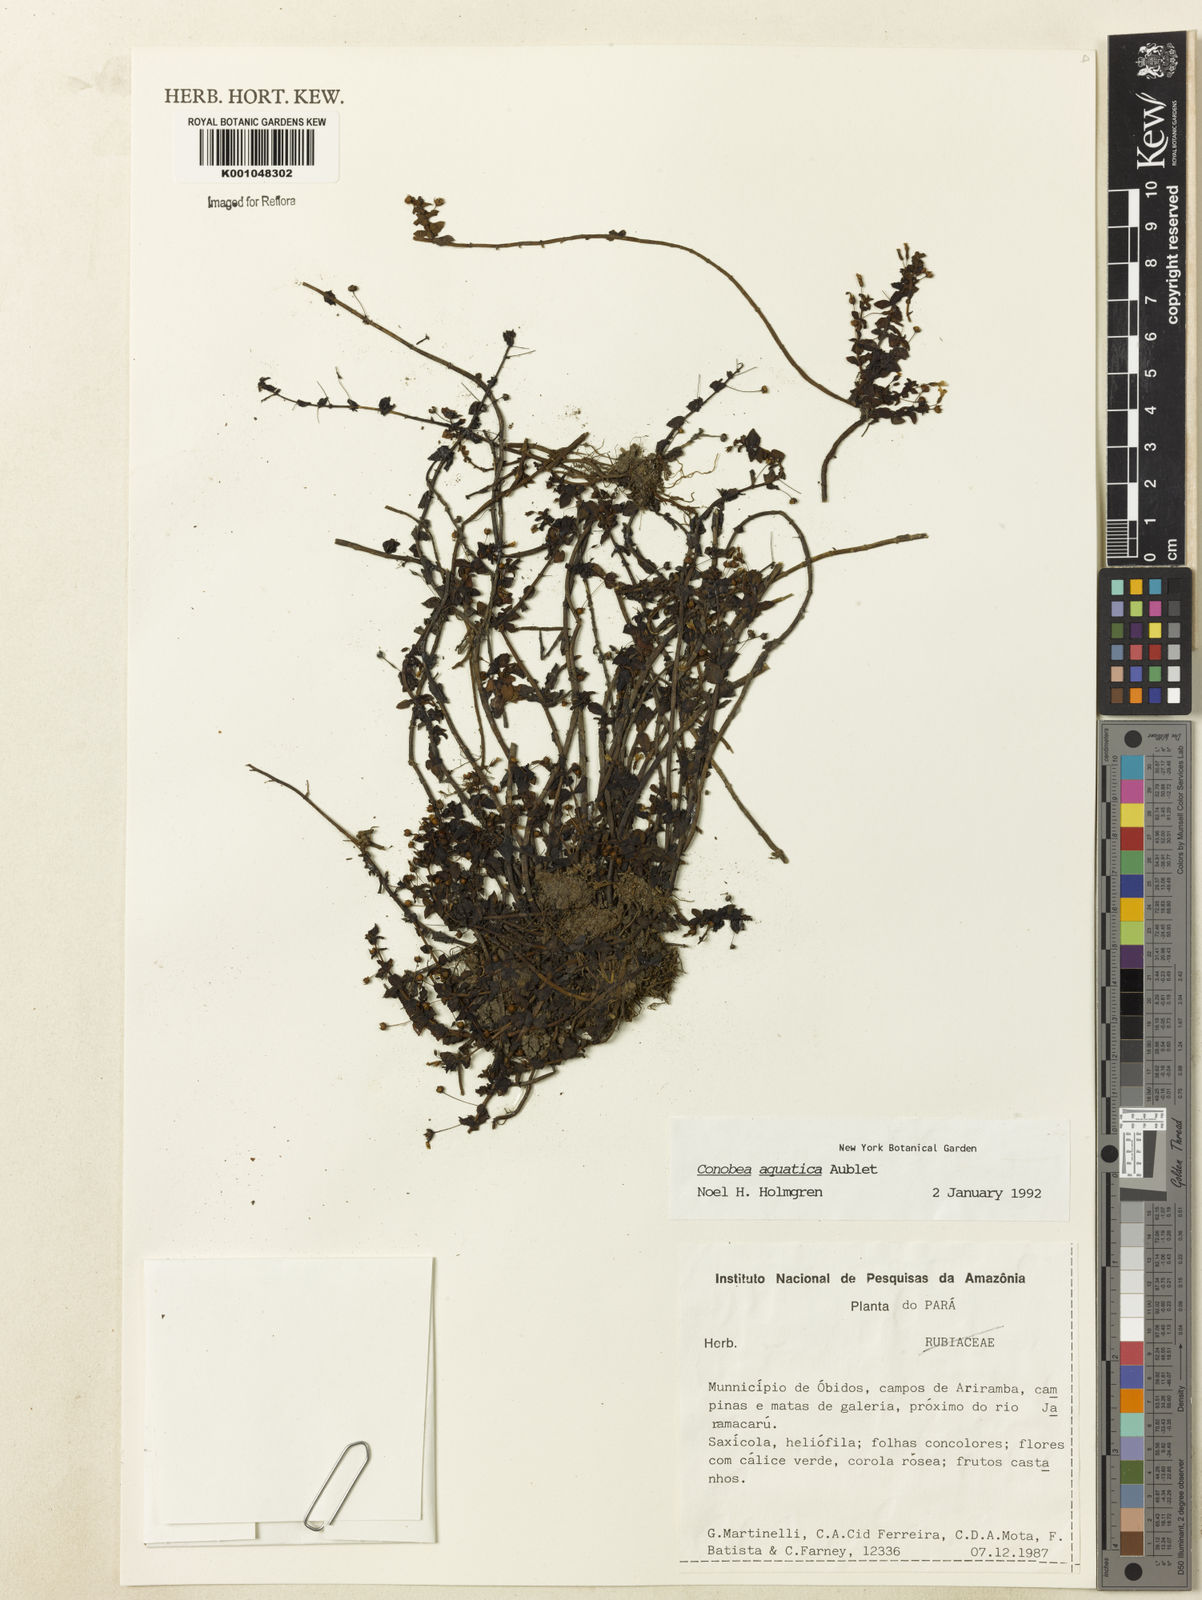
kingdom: Plantae
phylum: Tracheophyta
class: Magnoliopsida
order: Lamiales
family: Plantaginaceae
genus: Conobea
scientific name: Conobea aquatica
